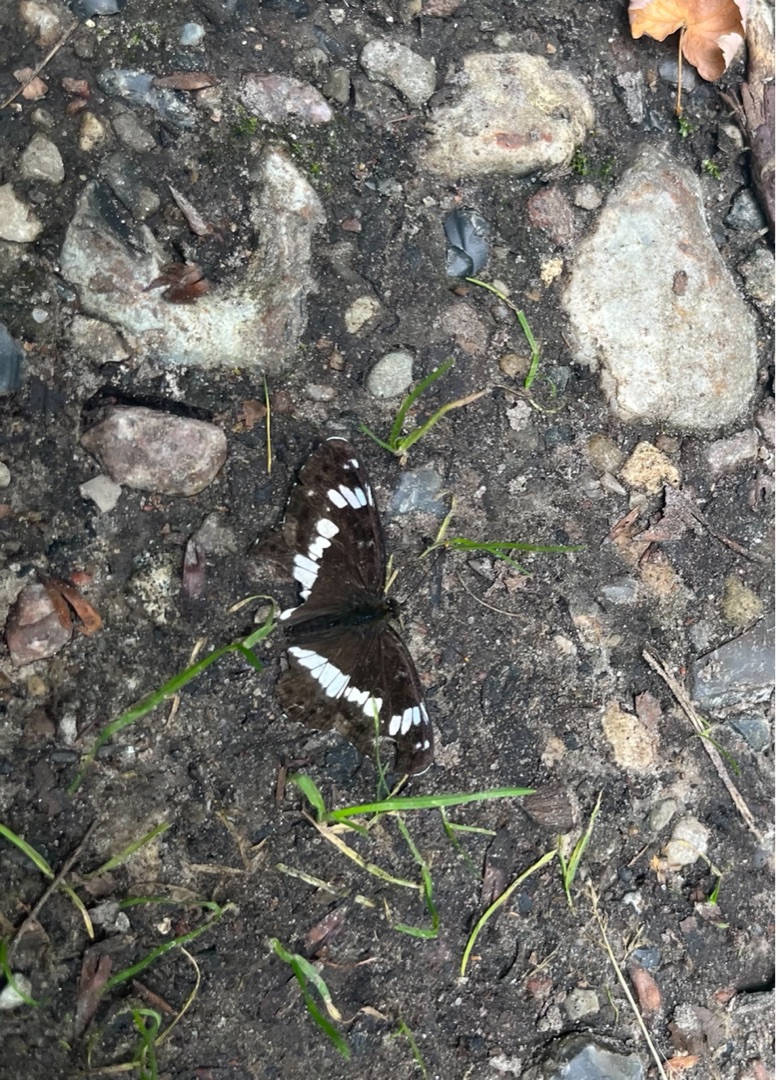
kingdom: Animalia
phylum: Arthropoda
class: Insecta
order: Lepidoptera
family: Nymphalidae
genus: Ladoga
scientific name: Ladoga camilla
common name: Hvid admiral
